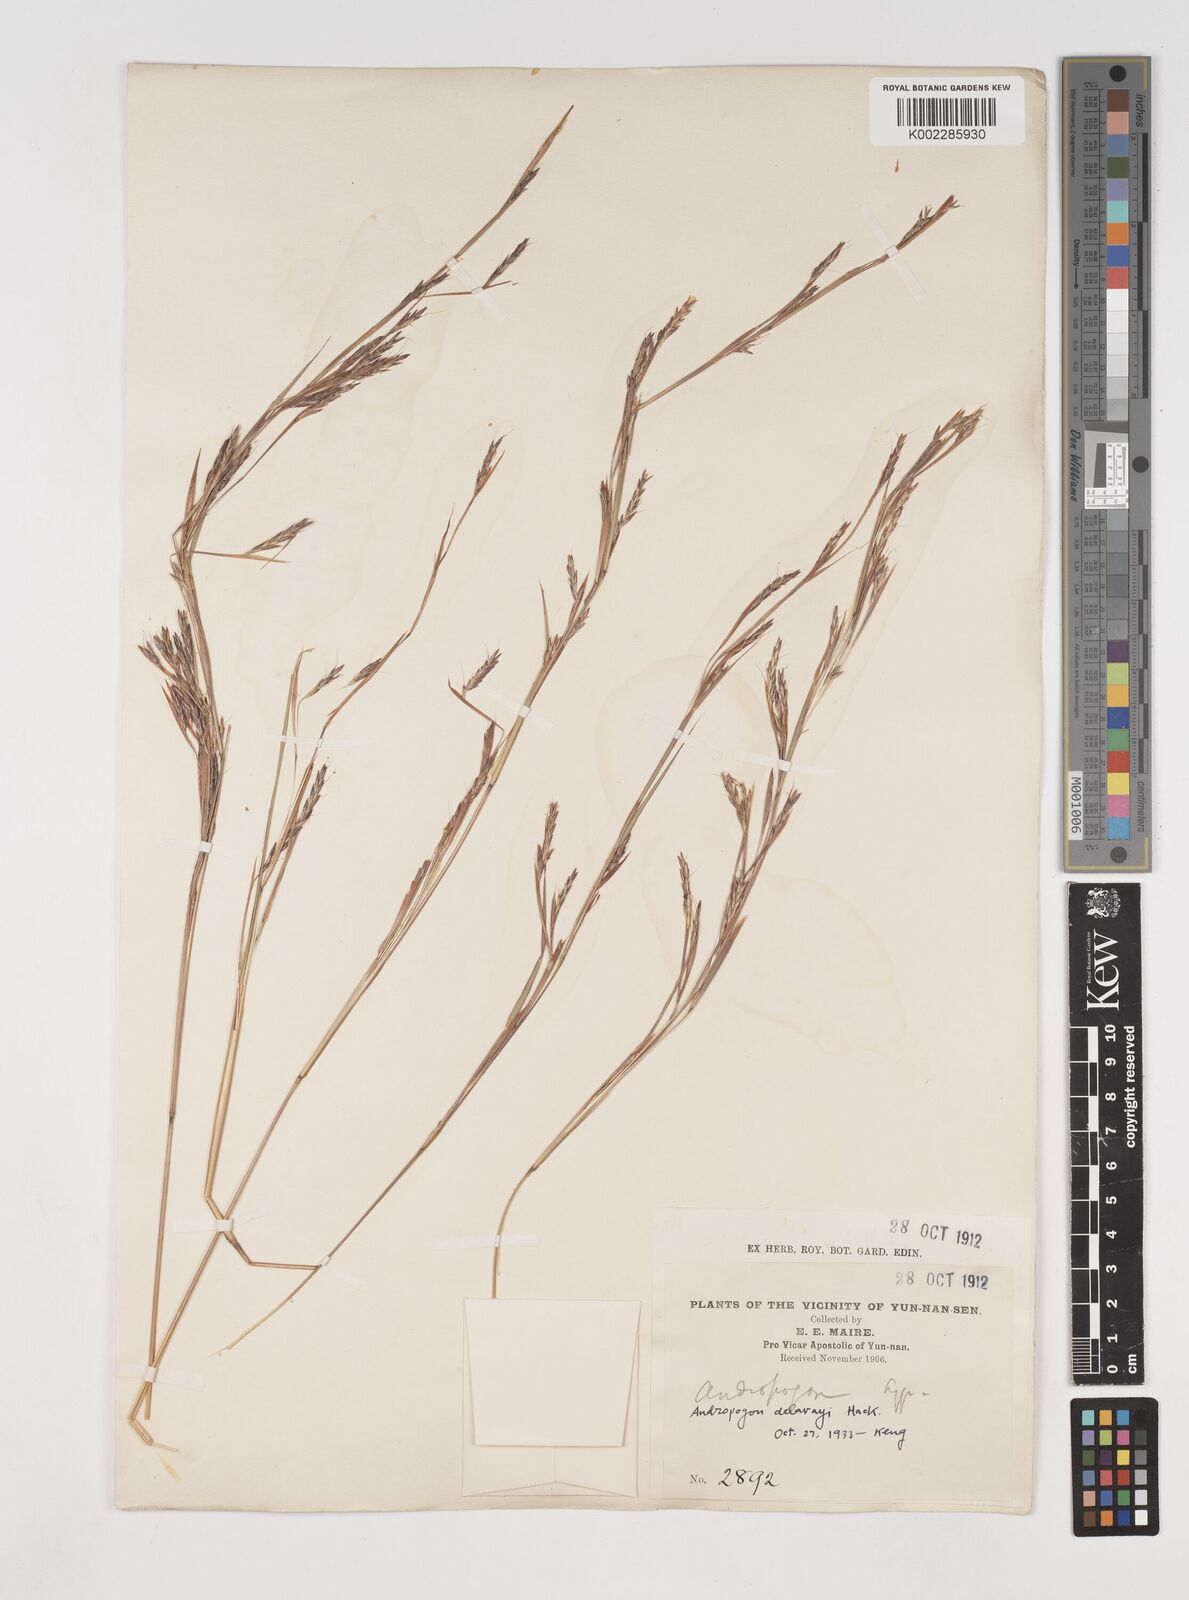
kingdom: Plantae
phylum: Tracheophyta
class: Liliopsida
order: Poales
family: Poaceae
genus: Schizachyrium
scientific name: Schizachyrium delavayi
